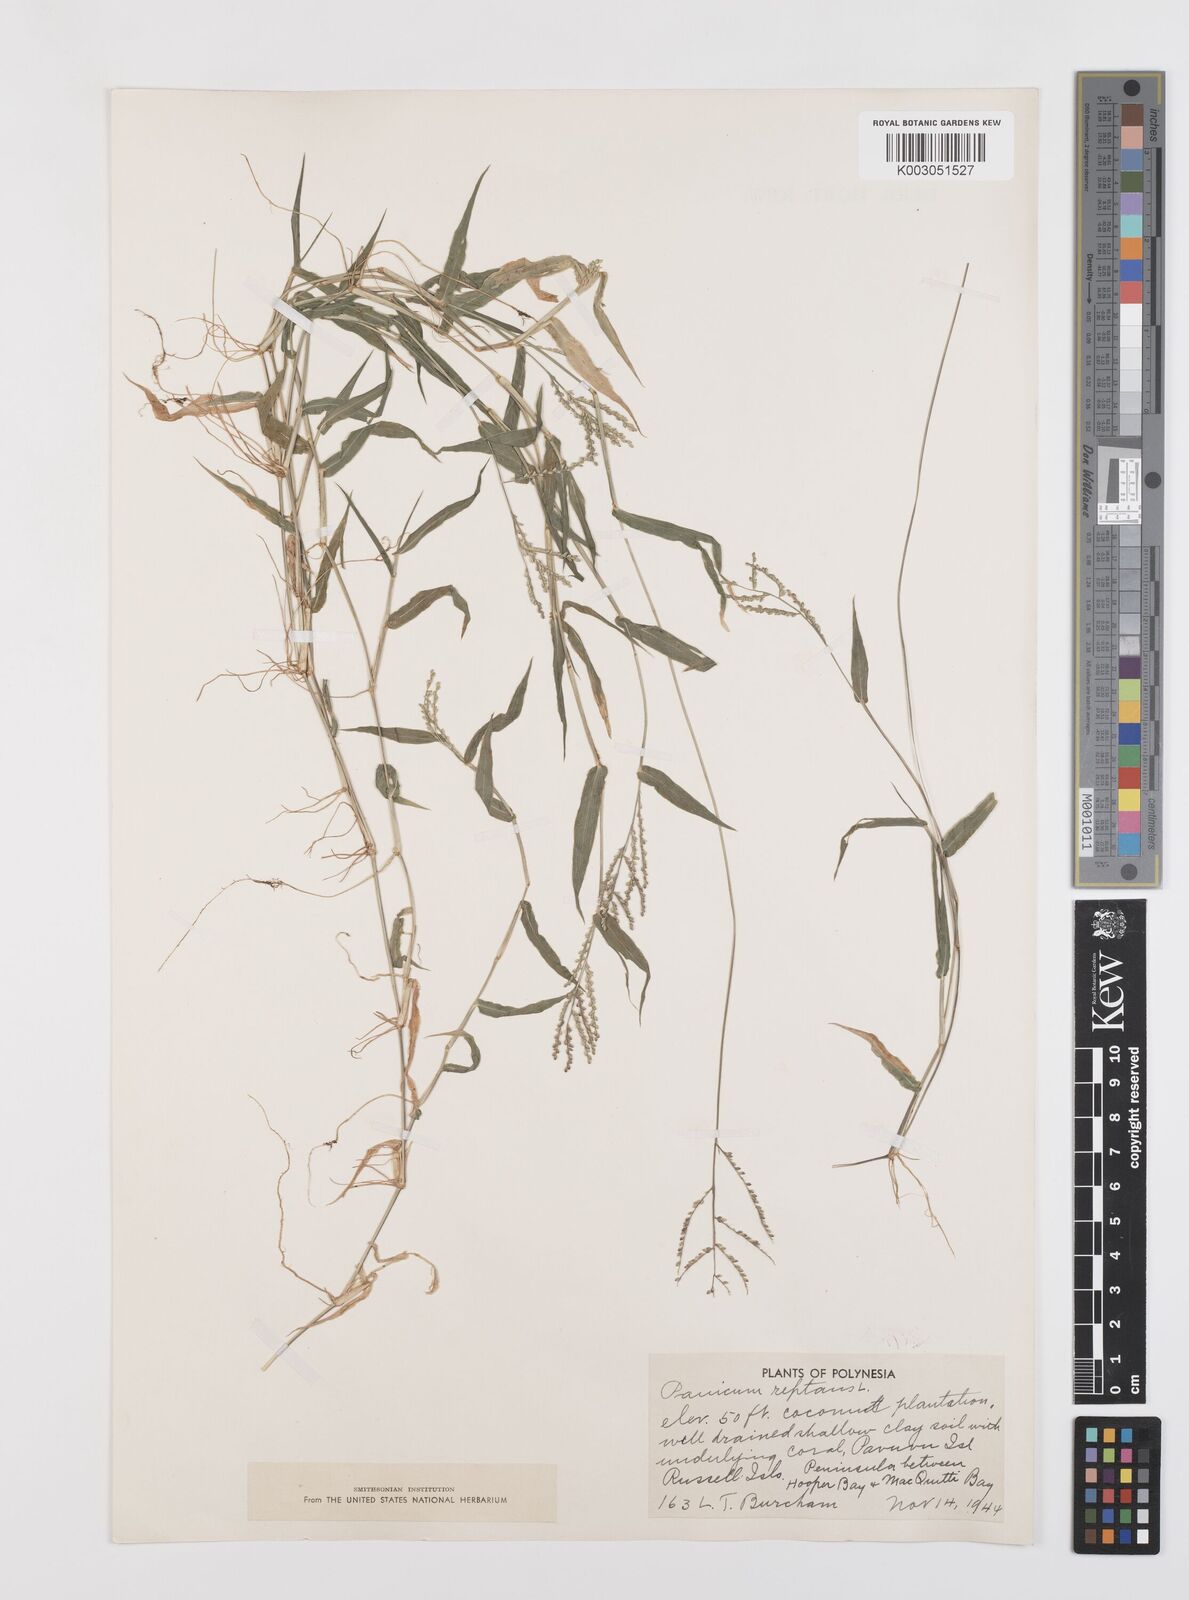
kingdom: Plantae
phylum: Tracheophyta
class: Liliopsida
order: Poales
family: Poaceae
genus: Urochloa
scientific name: Urochloa reptans
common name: Sprawling signalgrass
